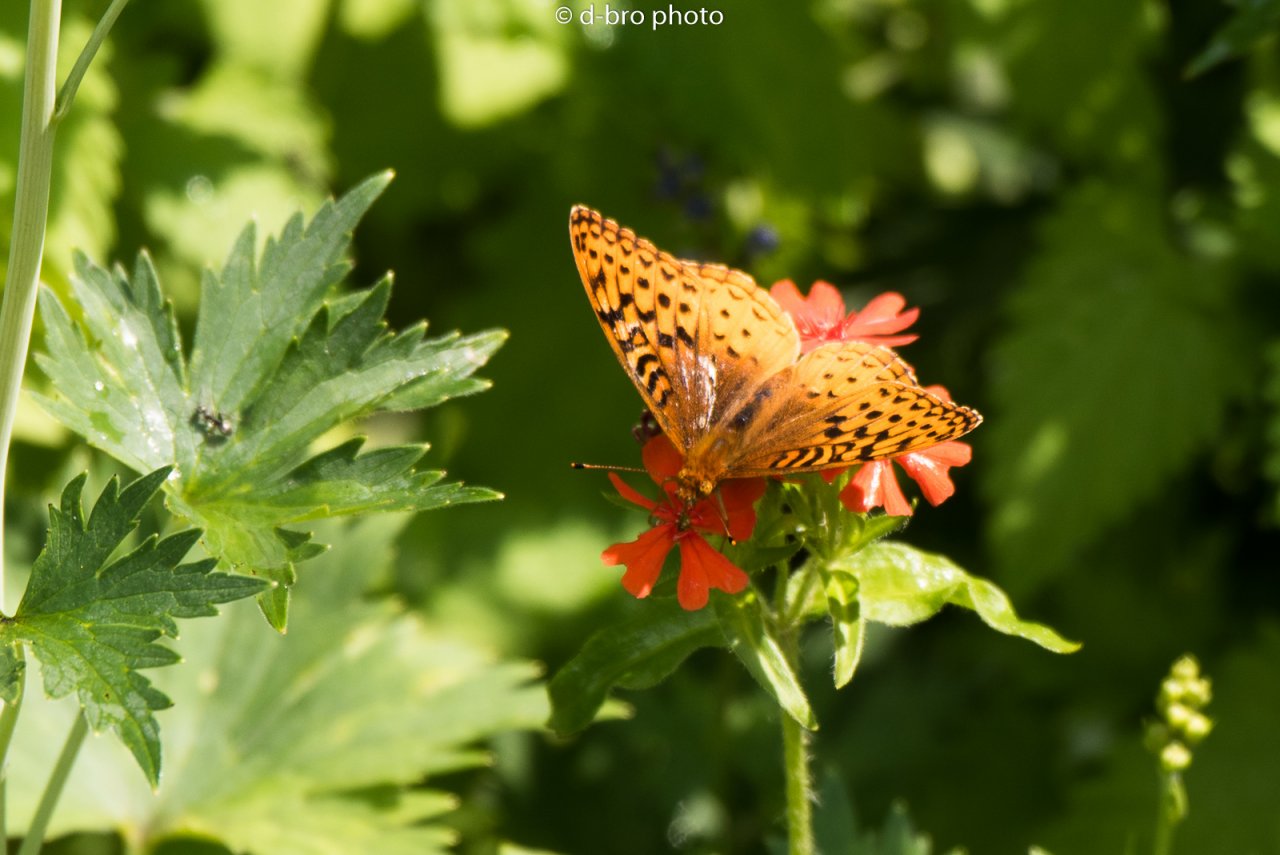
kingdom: Animalia
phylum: Arthropoda
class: Insecta
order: Lepidoptera
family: Nymphalidae
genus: Speyeria
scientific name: Speyeria cybele
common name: Great Spangled Fritillary
